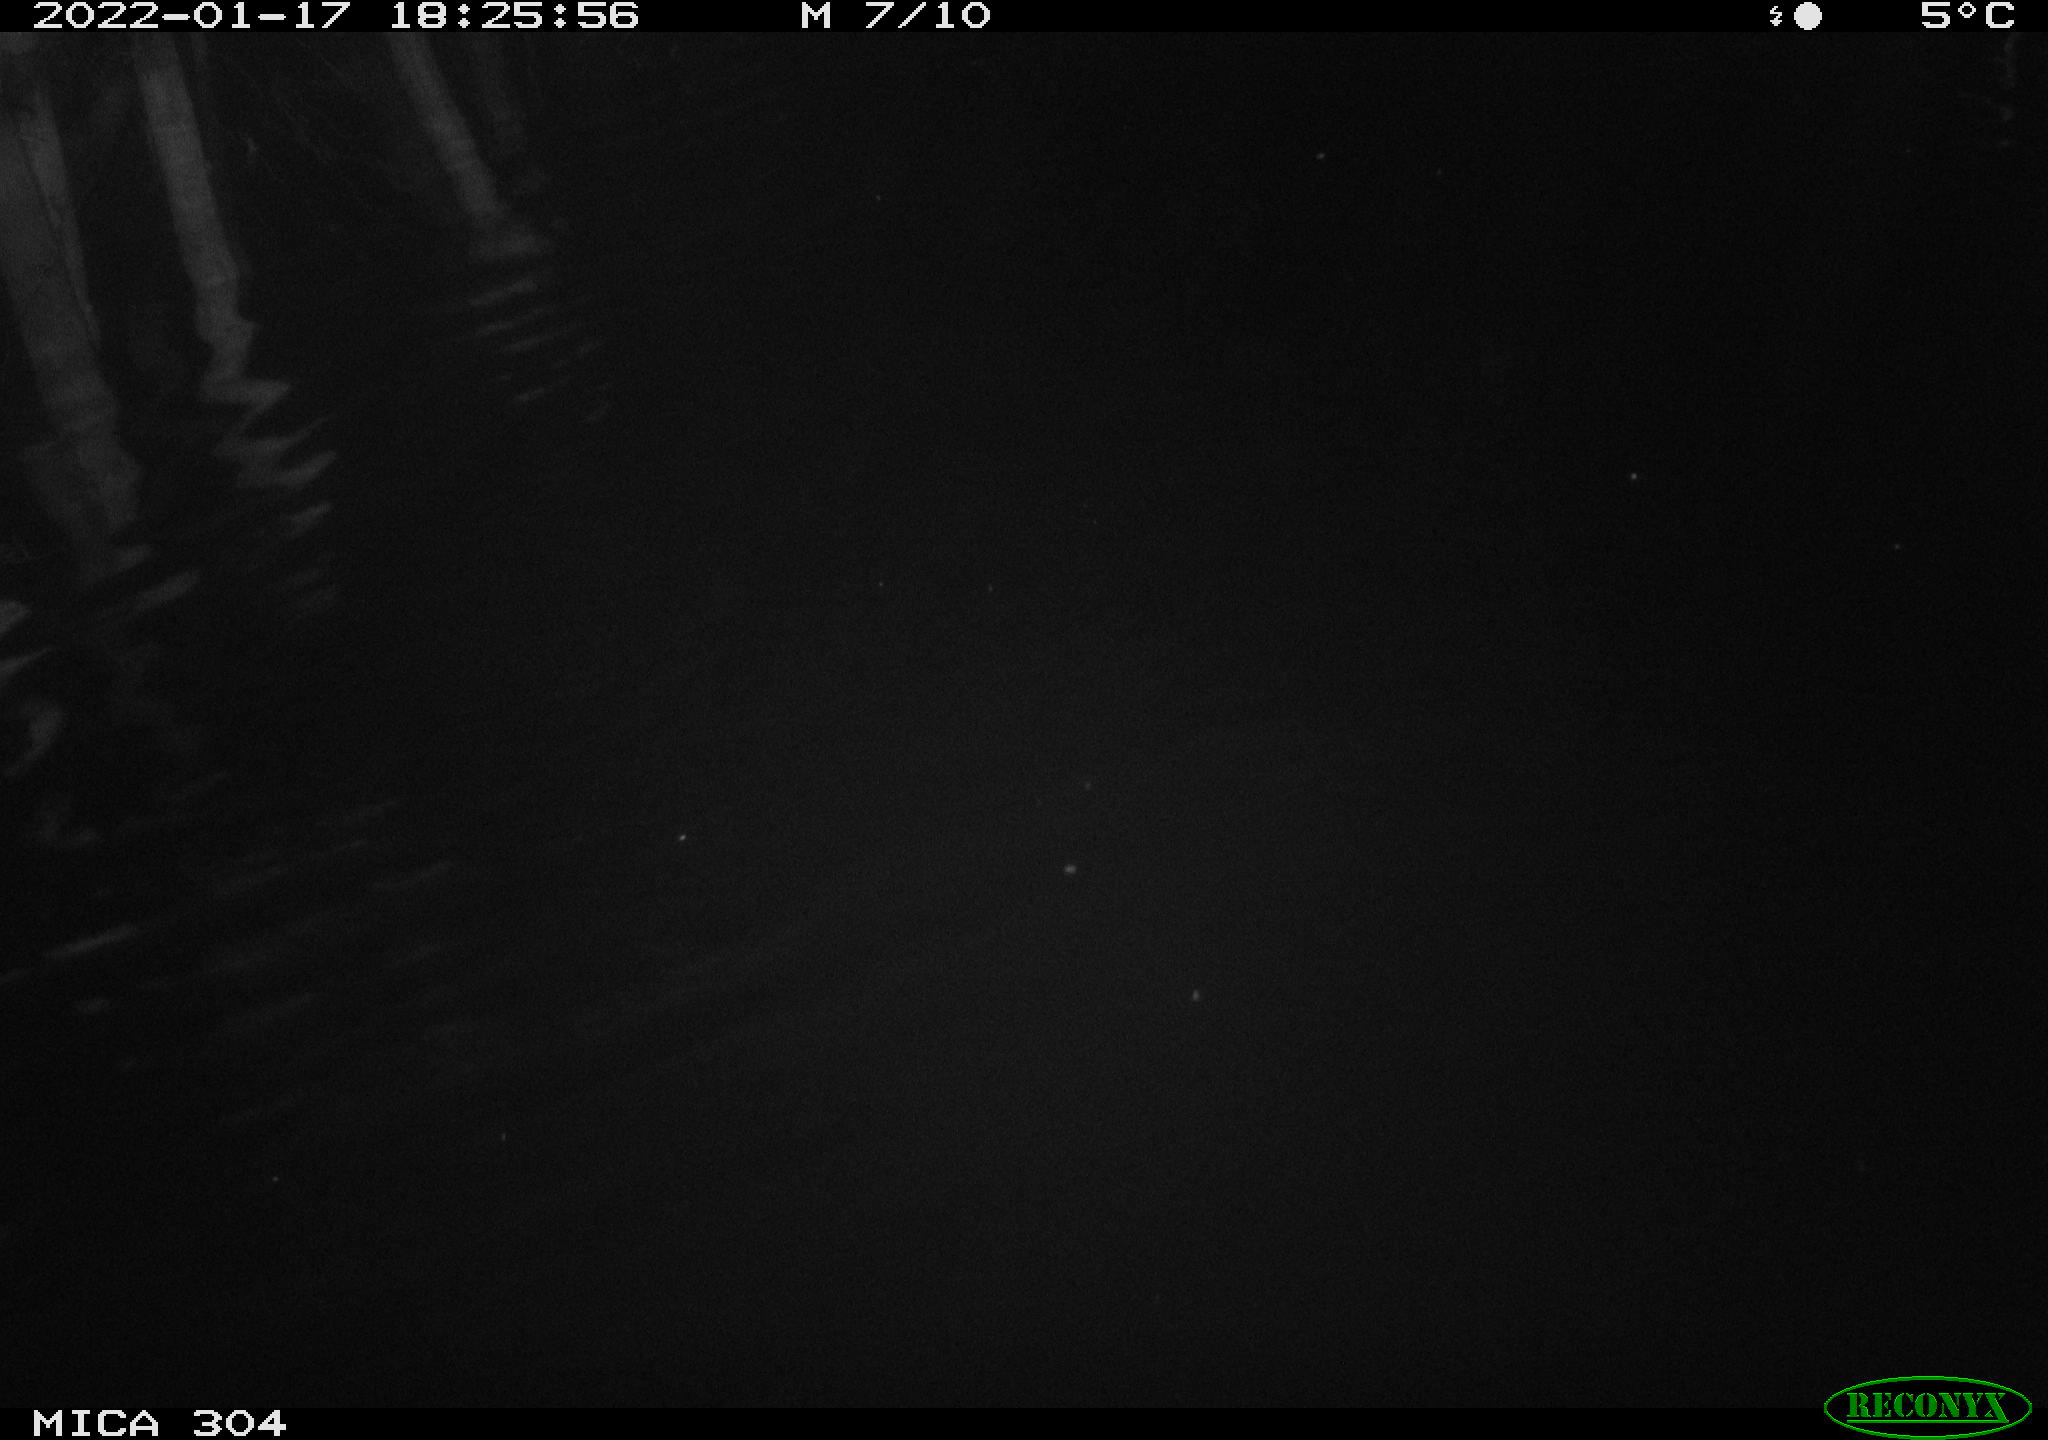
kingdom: Animalia
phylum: Chordata
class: Aves
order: Anseriformes
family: Anatidae
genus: Anas
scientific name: Anas platyrhynchos
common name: Mallard
